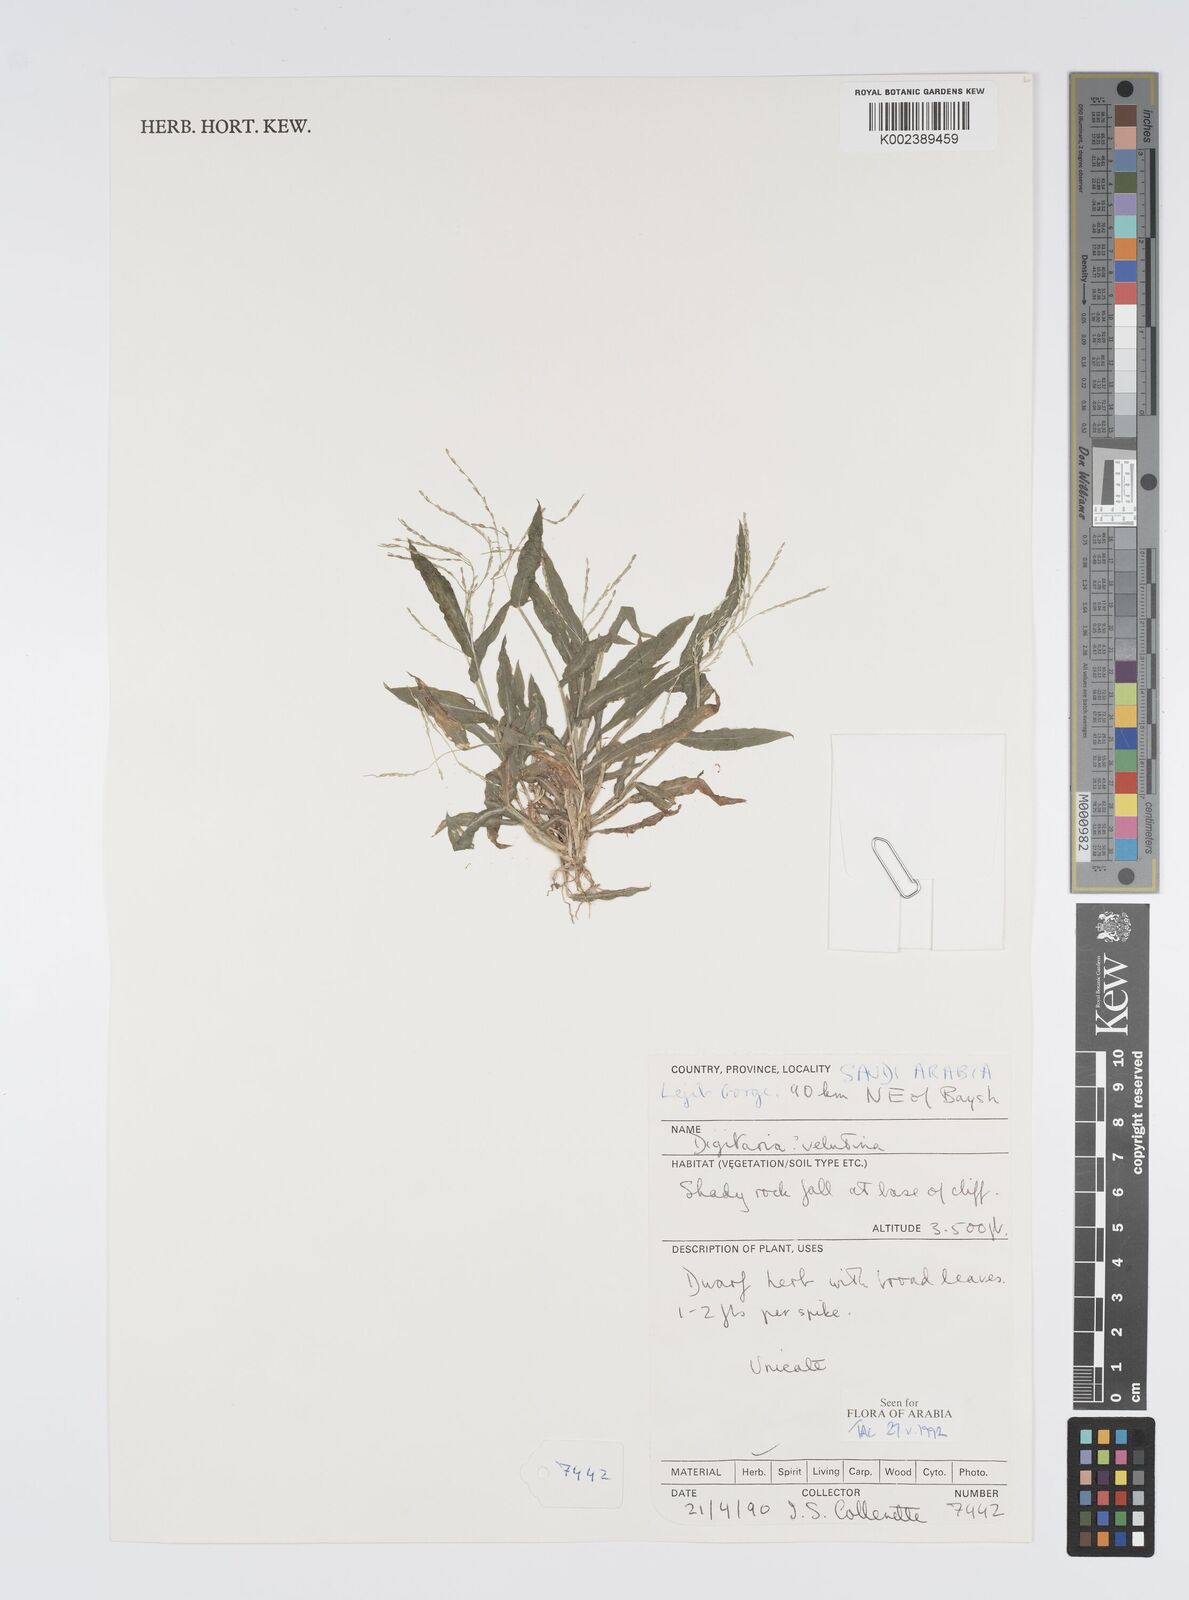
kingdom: Plantae
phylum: Tracheophyta
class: Liliopsida
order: Poales
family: Poaceae
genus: Digitaria
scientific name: Digitaria spec
